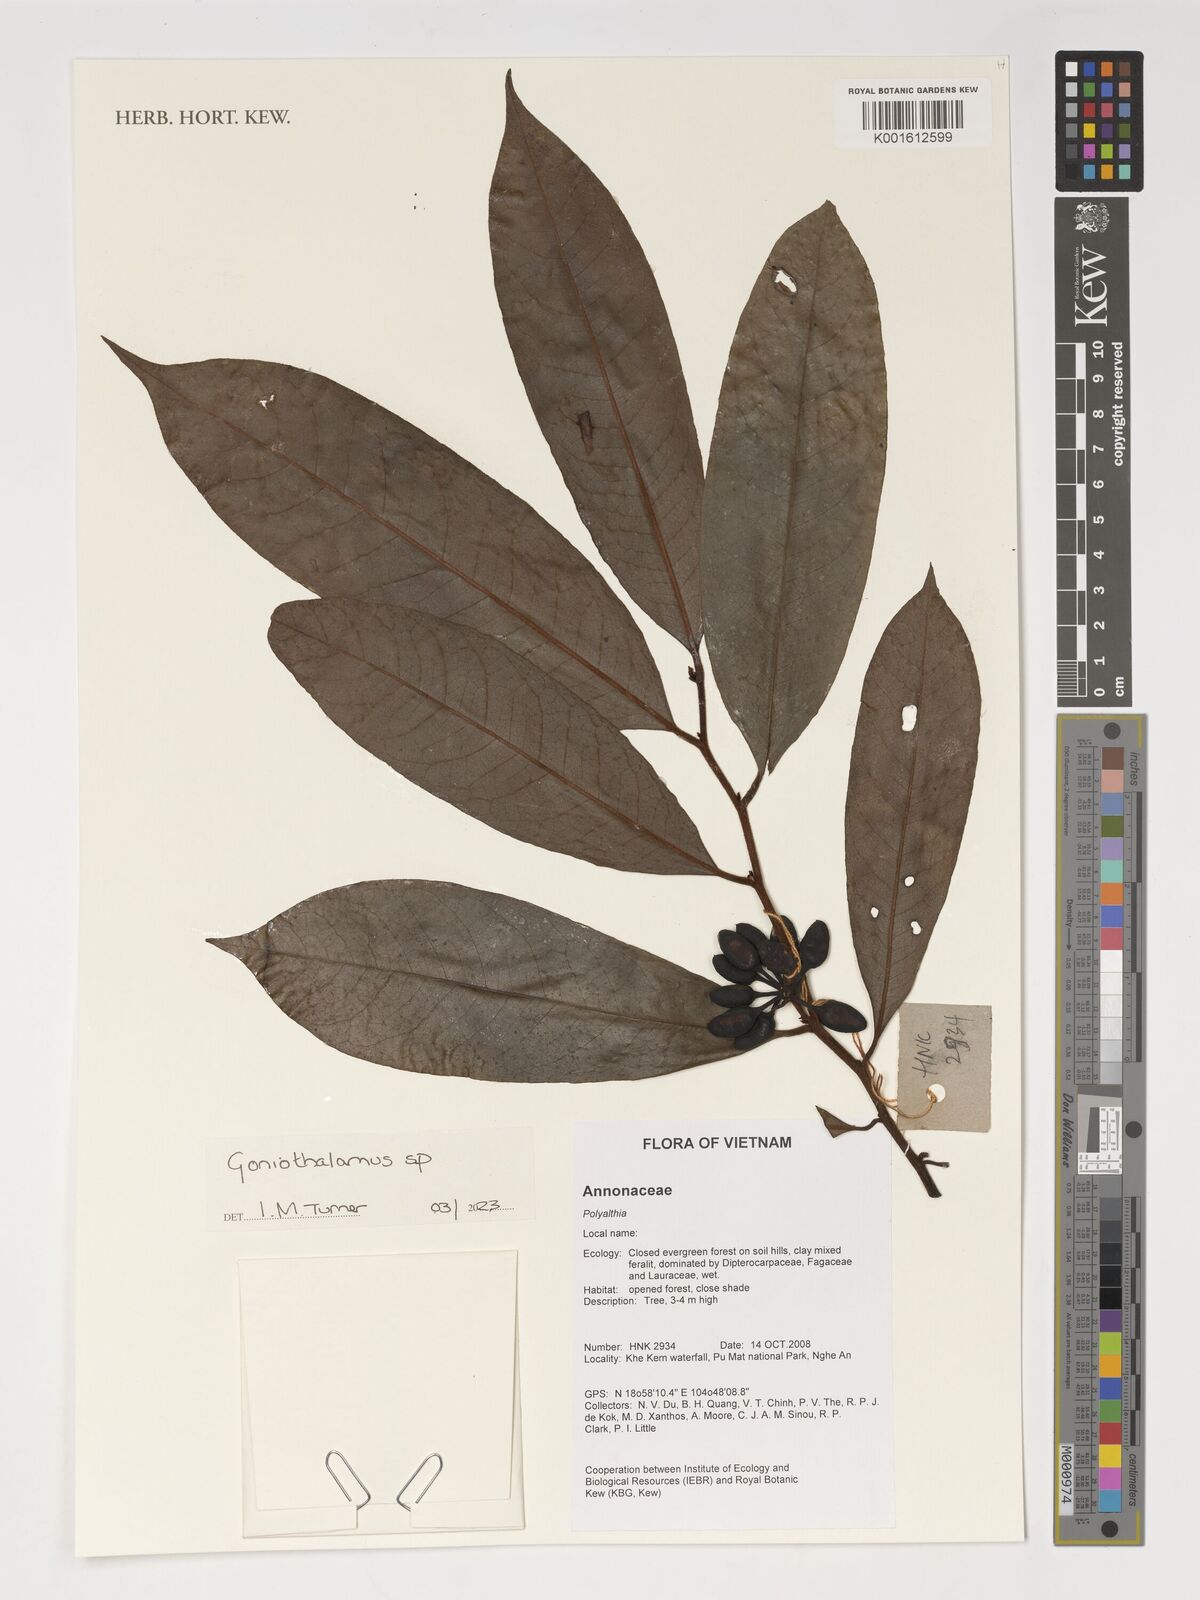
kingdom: Plantae
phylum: Tracheophyta
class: Magnoliopsida
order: Magnoliales
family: Annonaceae
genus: Goniothalamus
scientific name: Goniothalamus
